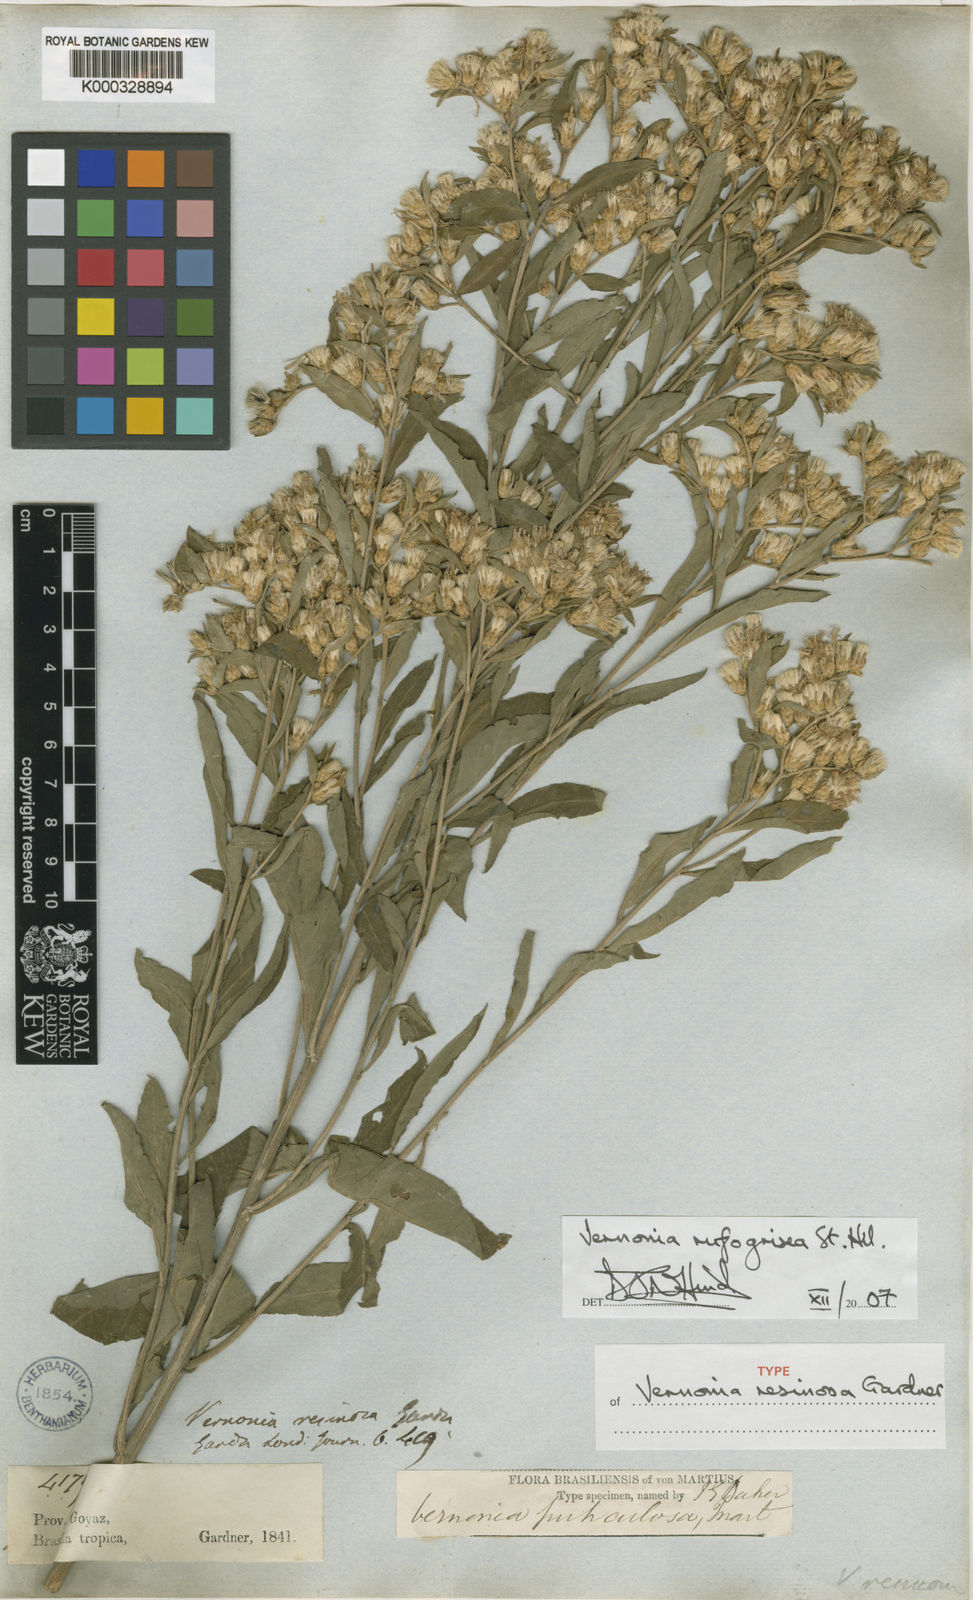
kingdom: Plantae
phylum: Tracheophyta
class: Magnoliopsida
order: Asterales
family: Asteraceae
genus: Lepidaploa
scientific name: Lepidaploa rufogrisea
